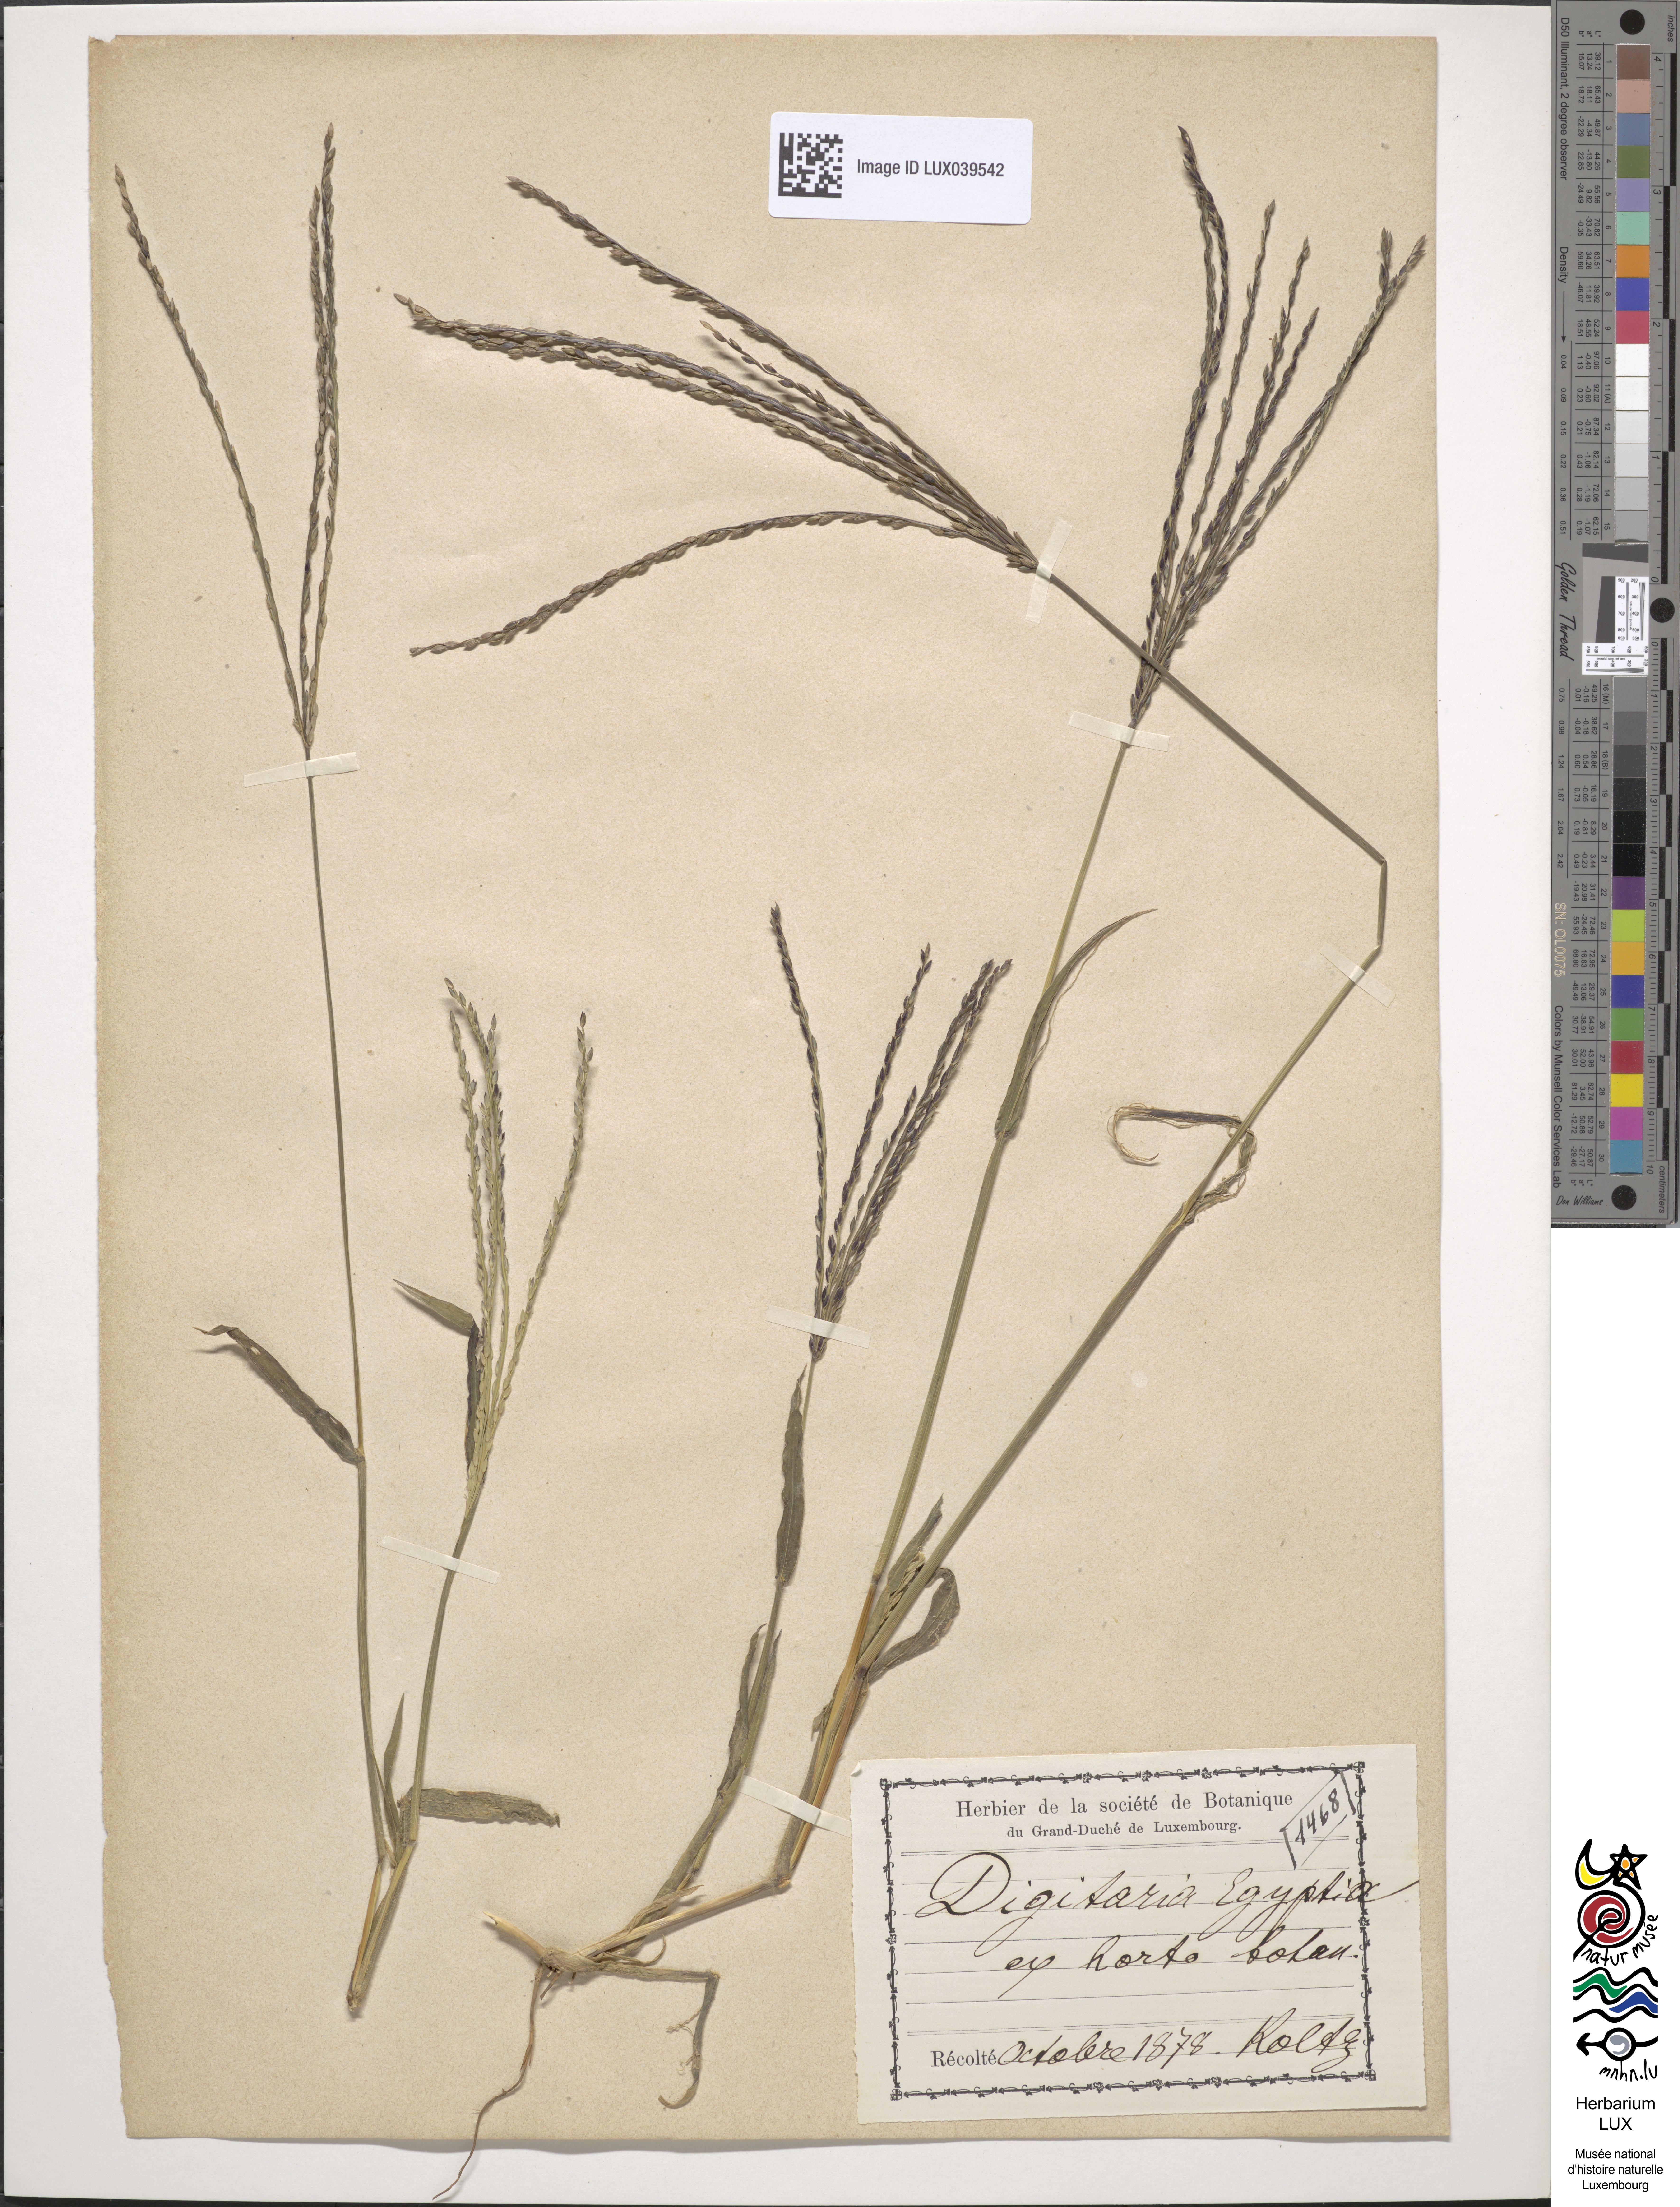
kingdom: Plantae
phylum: Tracheophyta
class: Liliopsida
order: Poales
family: Poaceae
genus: Digitaria
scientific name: Digitaria
